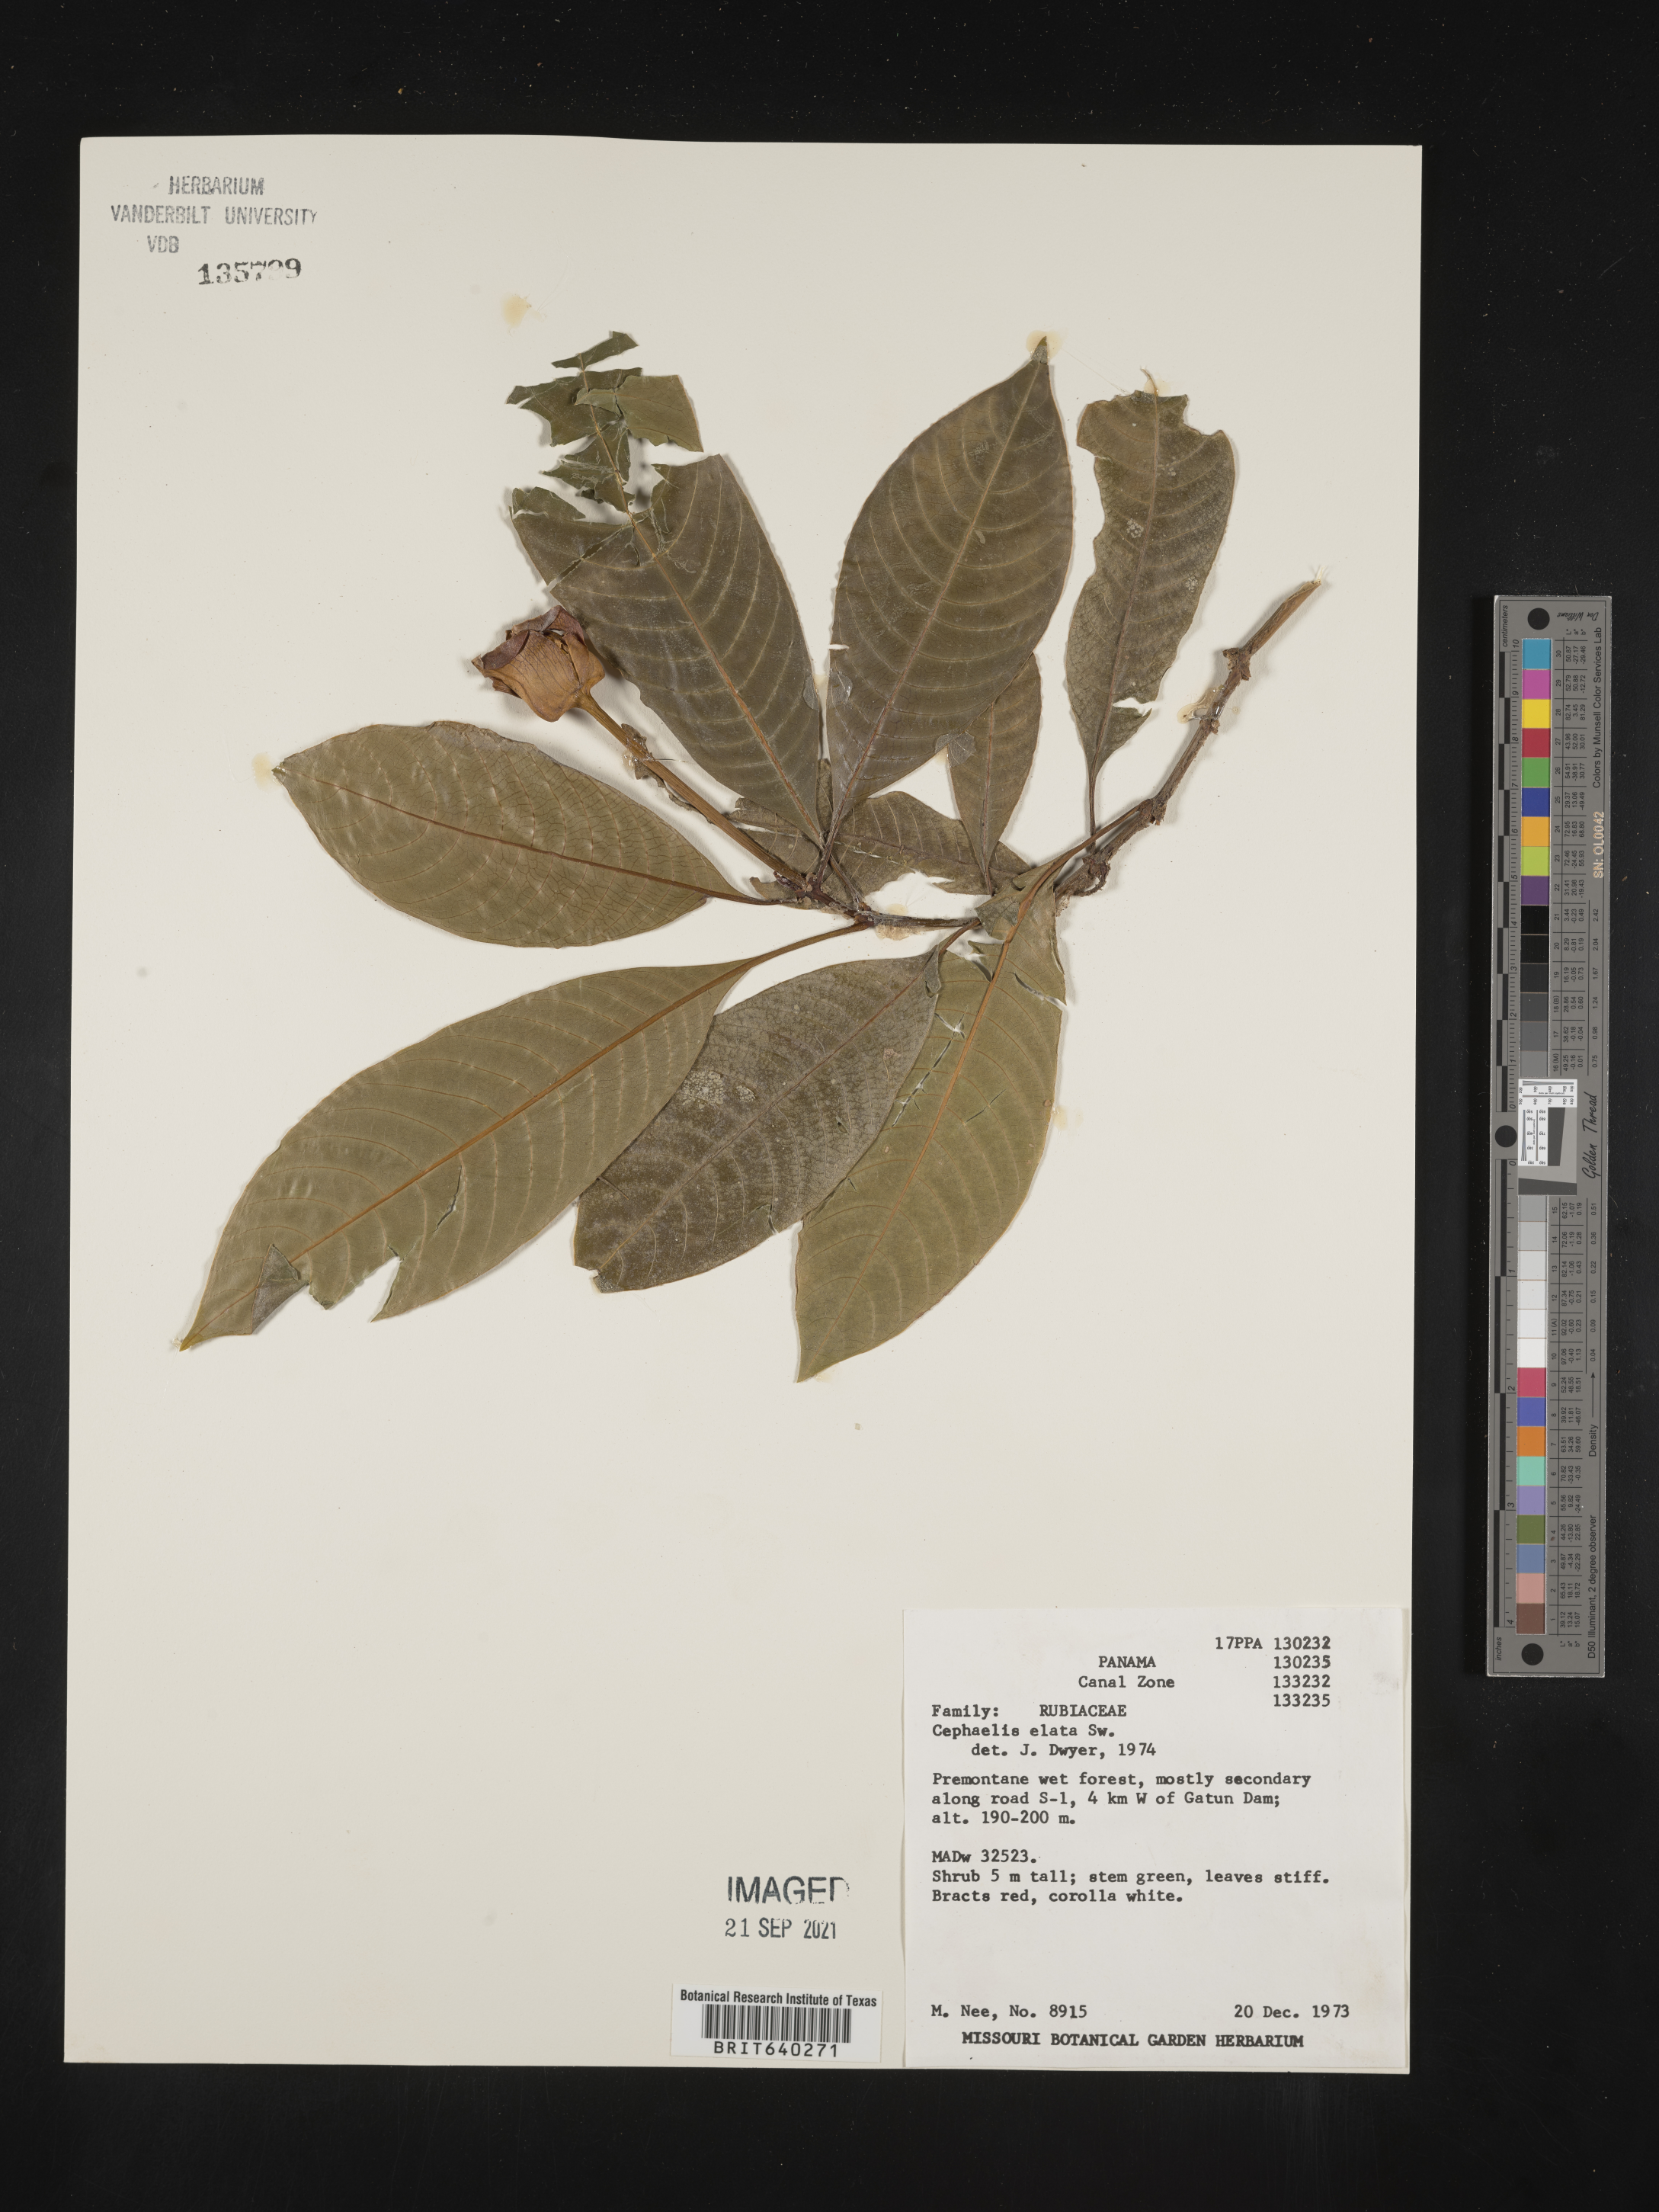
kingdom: Plantae
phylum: Tracheophyta
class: Magnoliopsida
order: Gentianales
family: Rubiaceae
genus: Psychotria
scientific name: Psychotria
